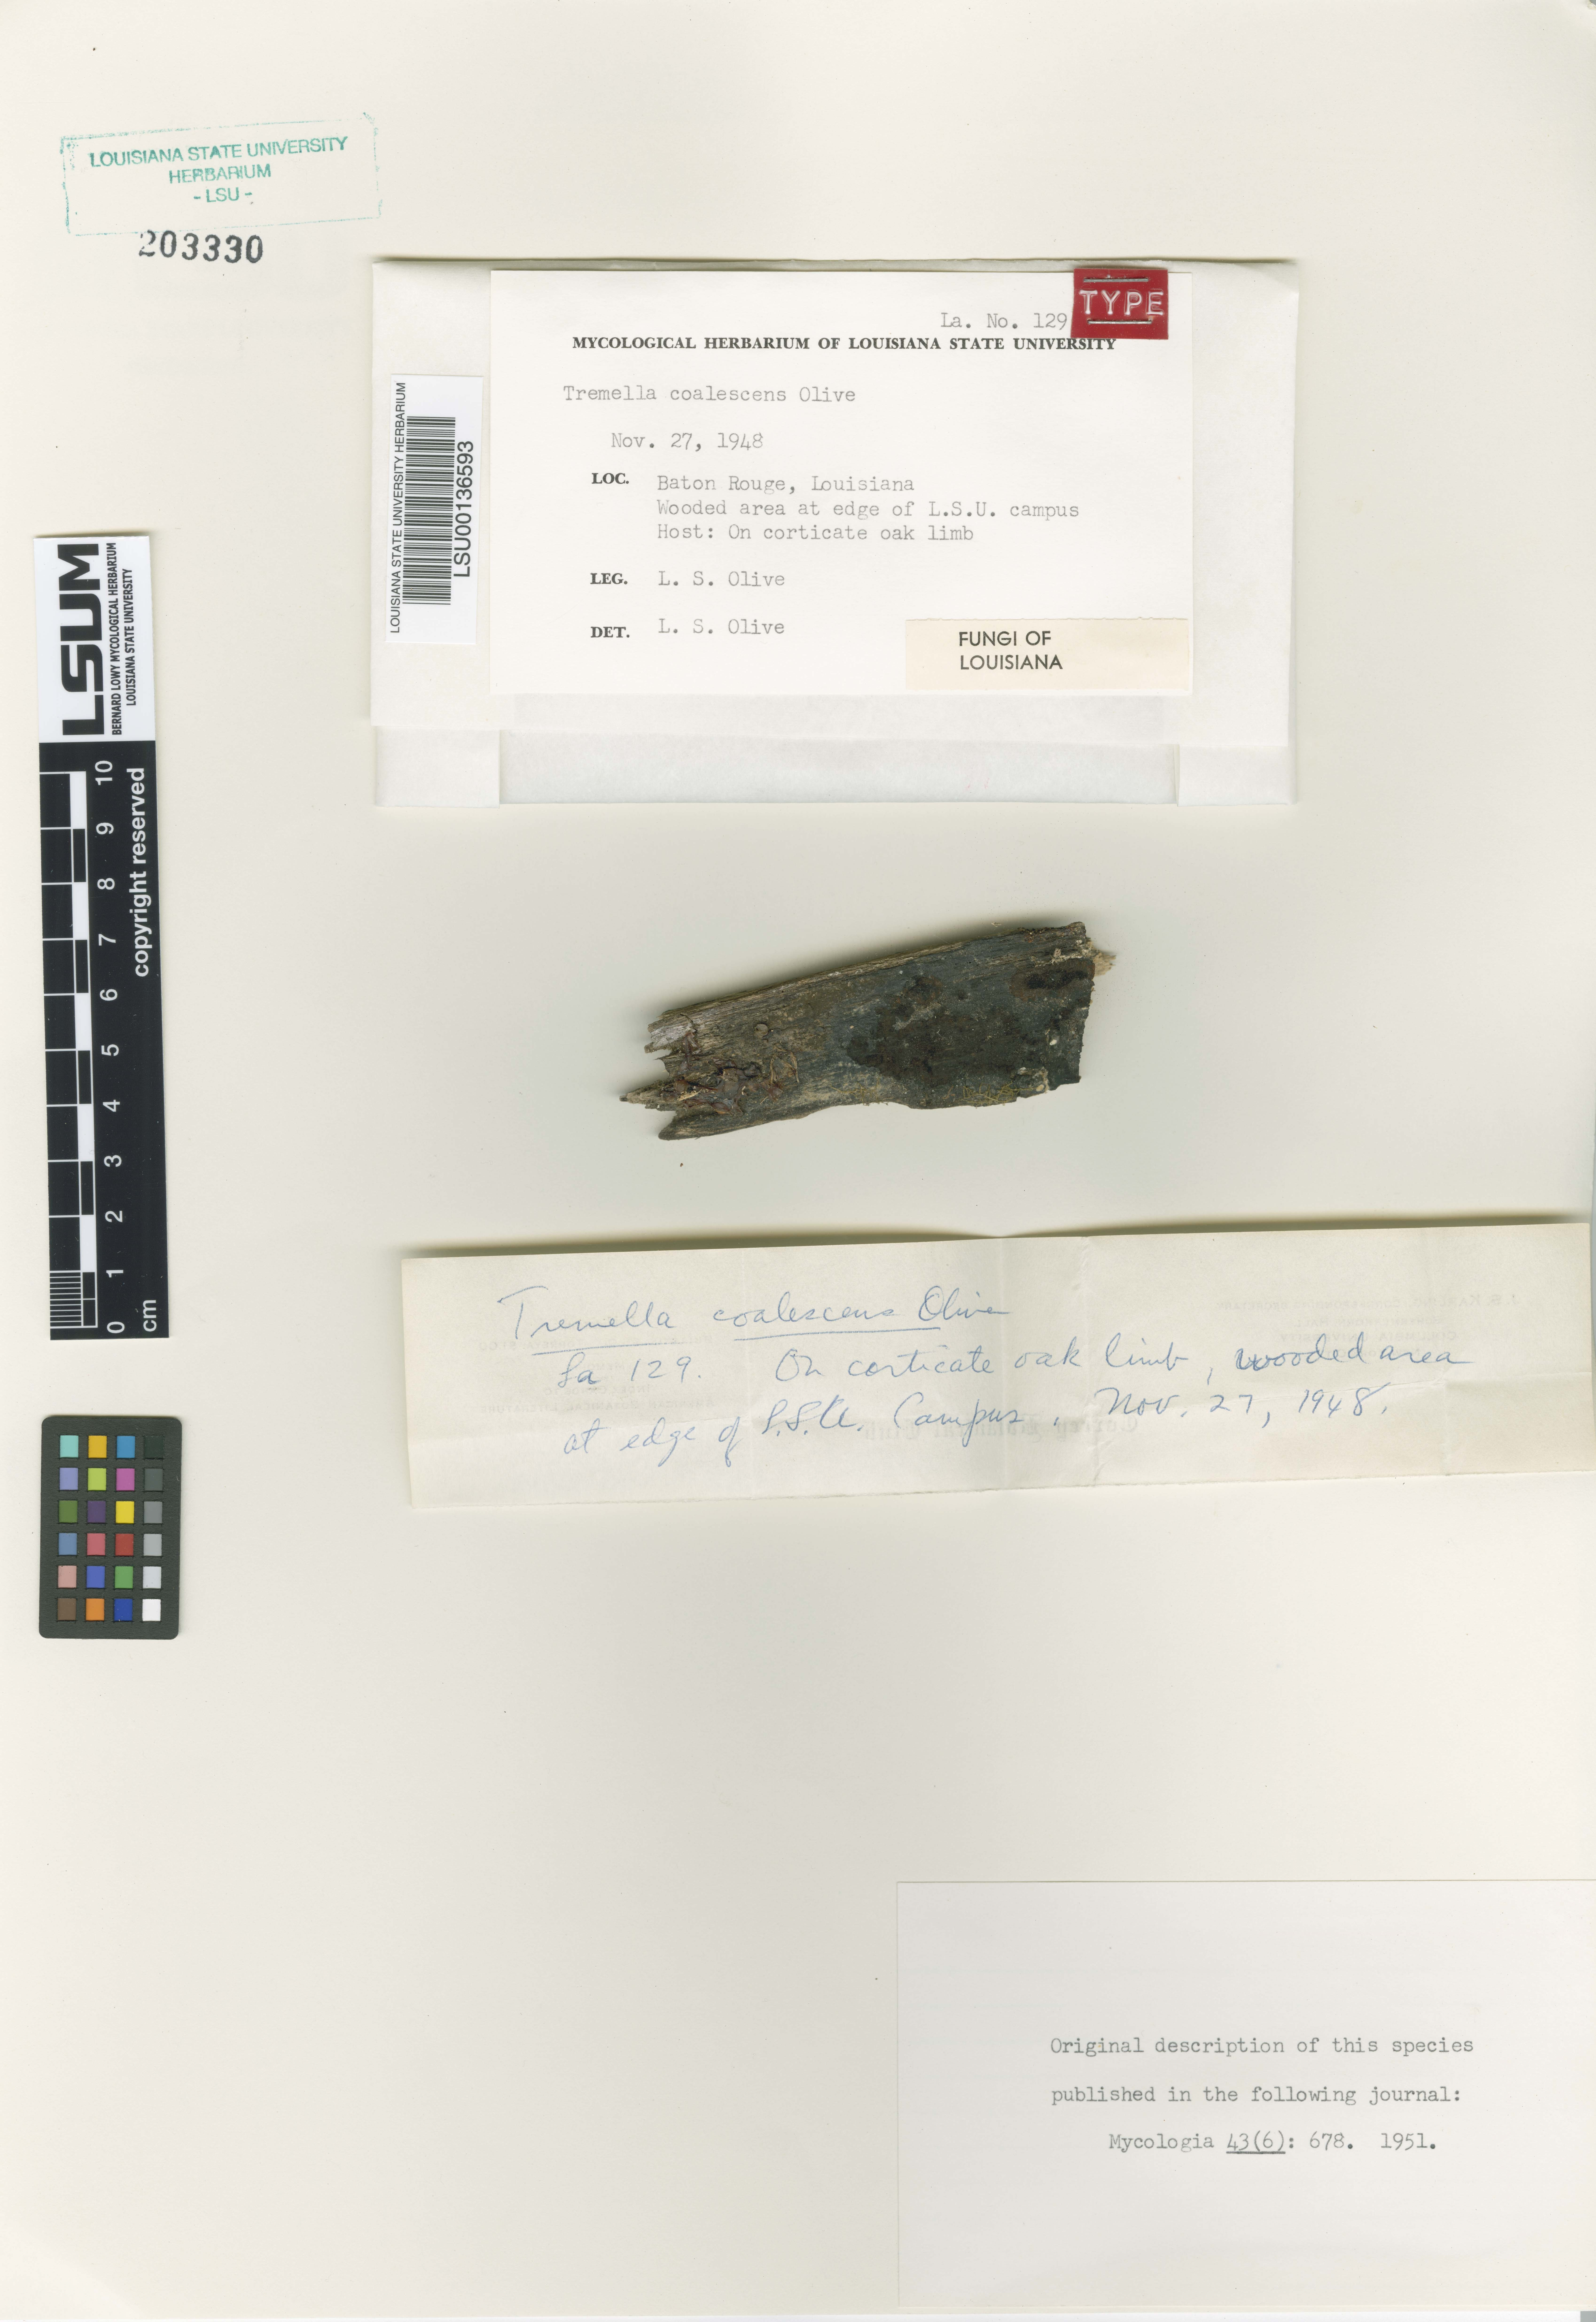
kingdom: Fungi
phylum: Basidiomycota
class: Tremellomycetes
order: Tremellales
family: Tremellaceae
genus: Tremella
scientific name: Tremella coalescens
